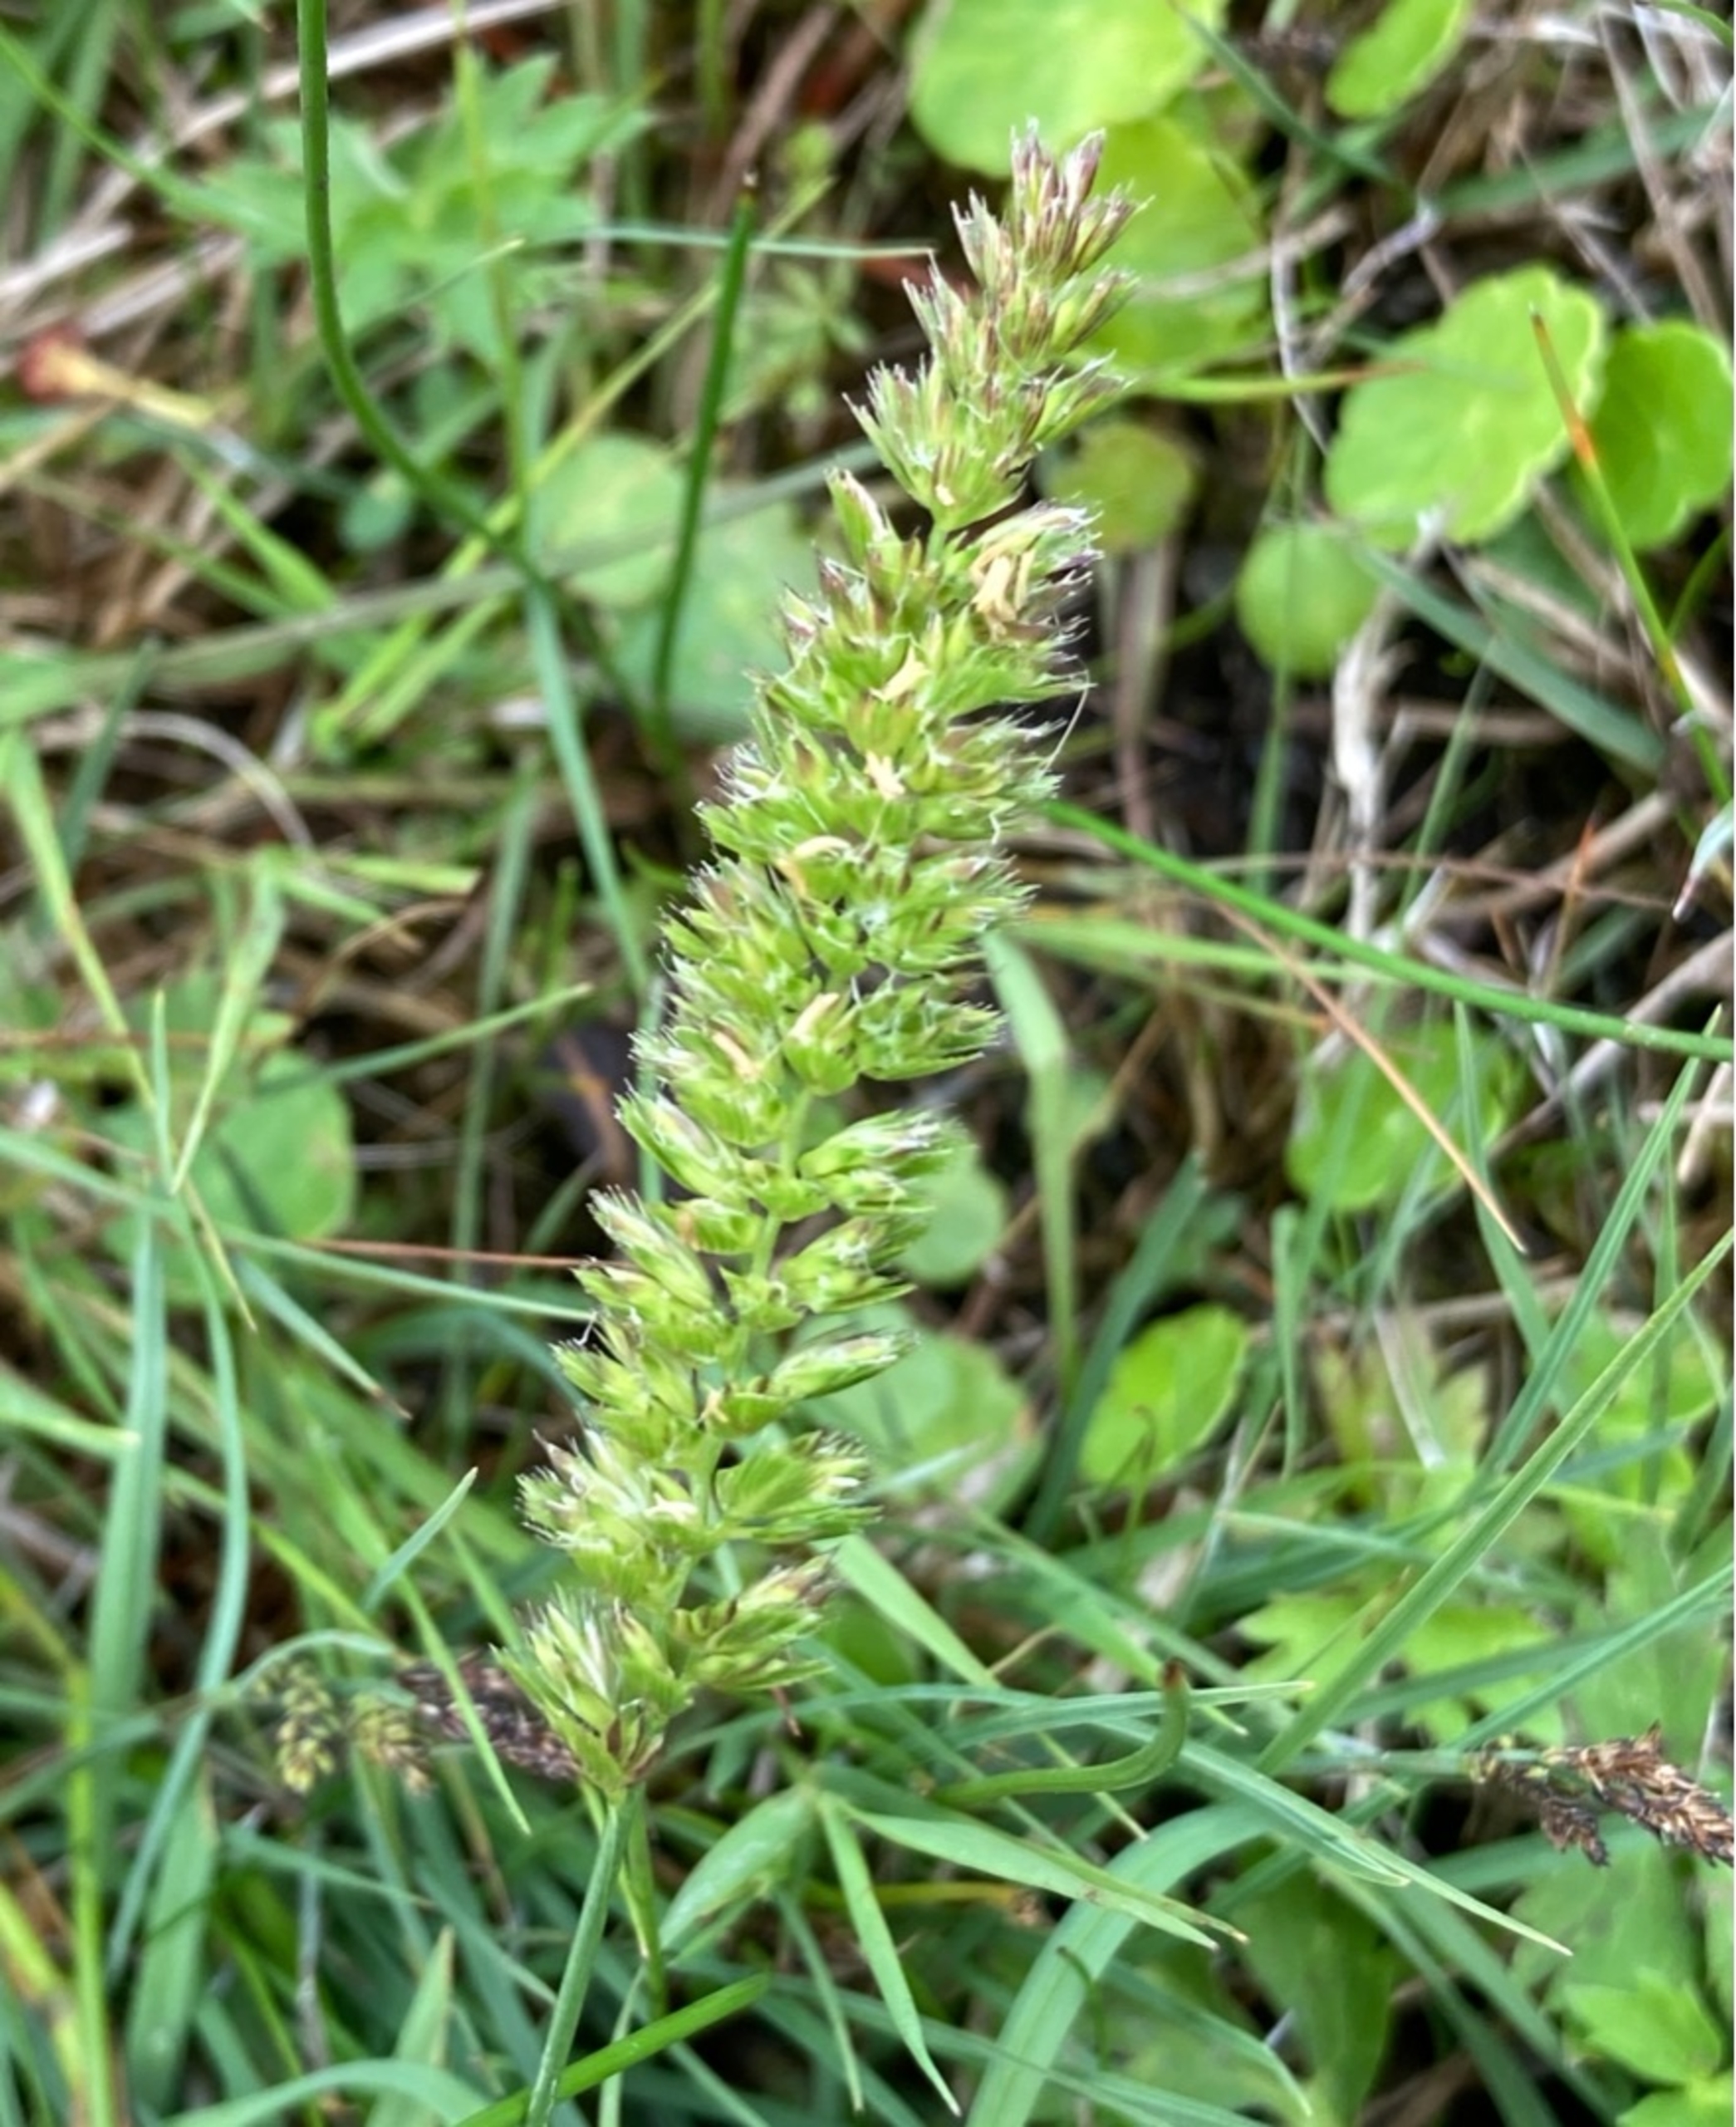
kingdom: Plantae
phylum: Tracheophyta
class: Liliopsida
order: Poales
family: Poaceae
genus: Cynosurus
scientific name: Cynosurus cristatus
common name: Kamgræs
